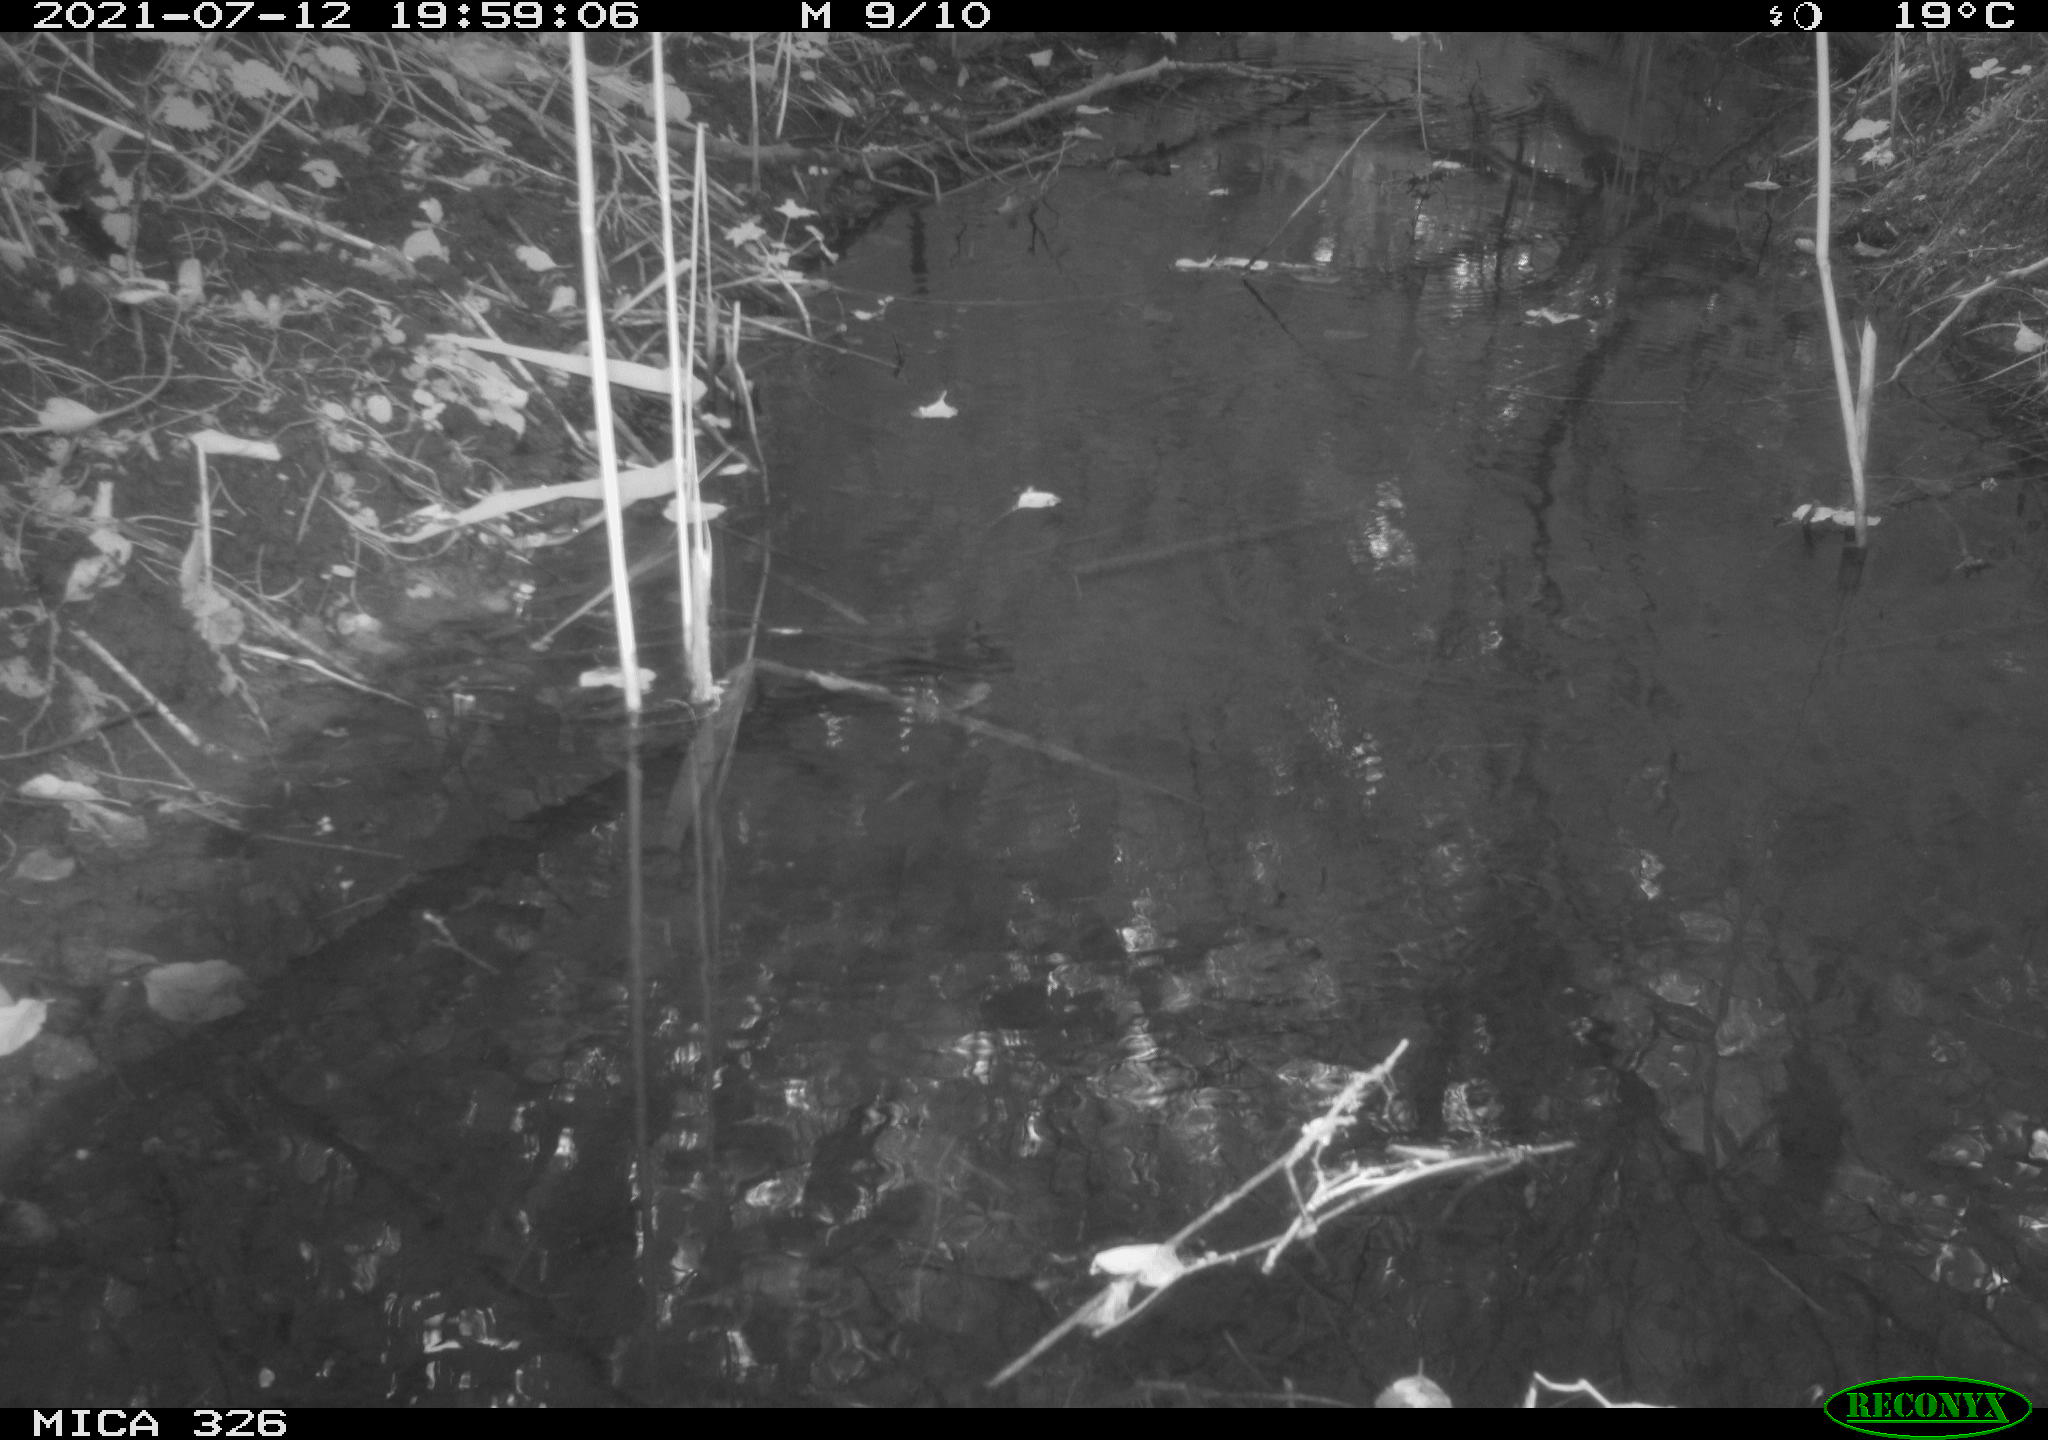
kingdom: Animalia
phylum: Chordata
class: Mammalia
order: Rodentia
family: Muridae
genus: Rattus
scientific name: Rattus norvegicus
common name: Brown rat
